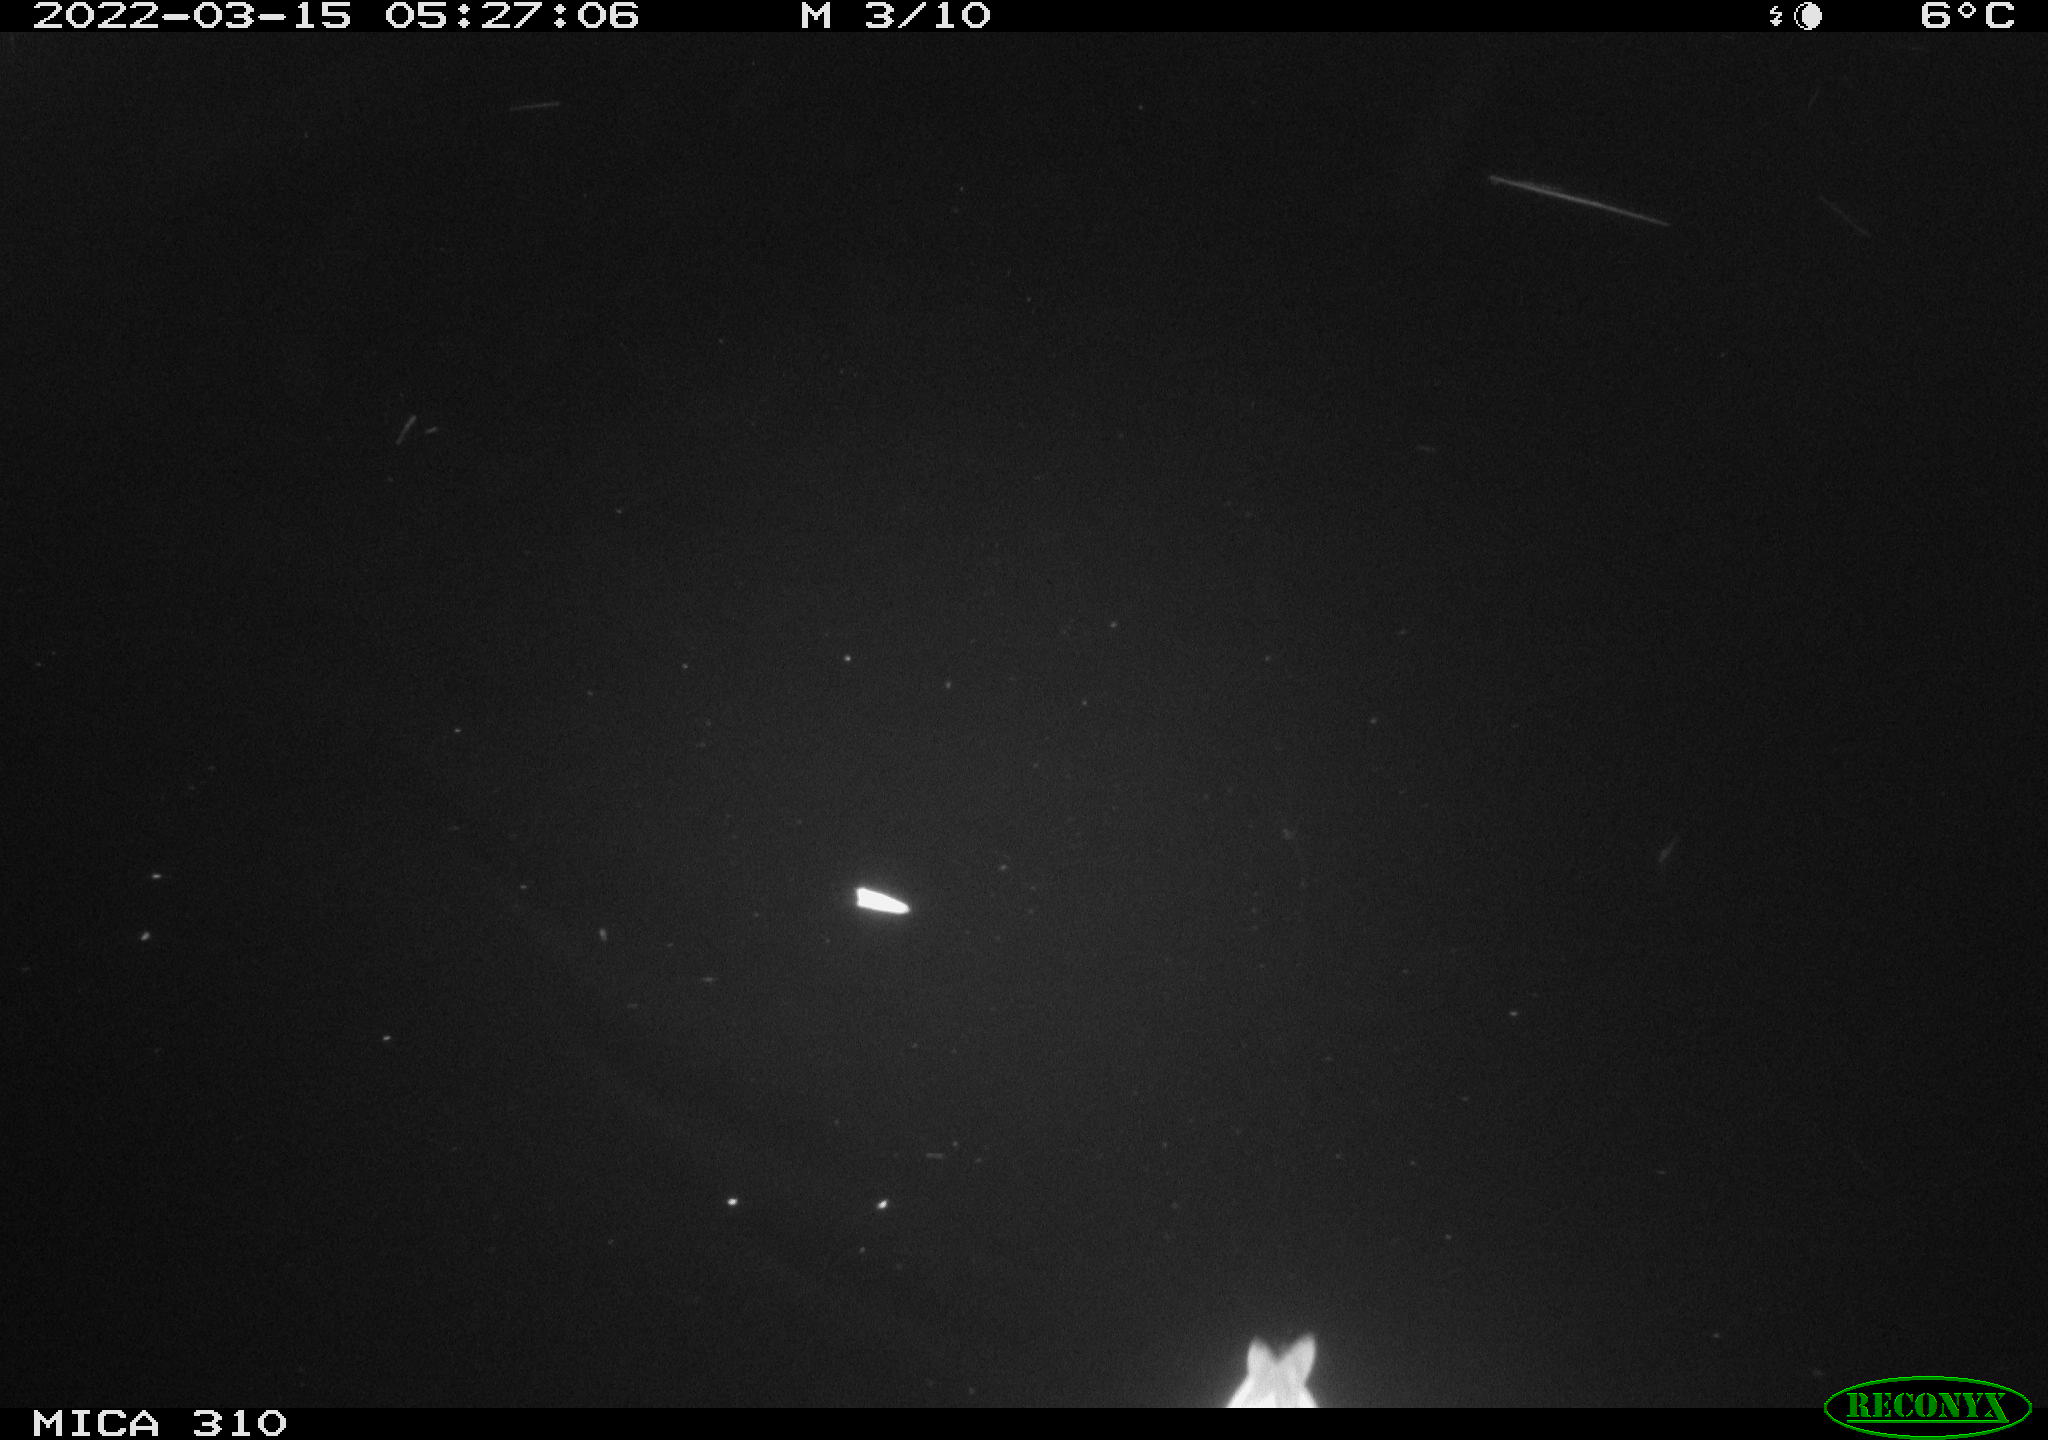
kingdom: Animalia
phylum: Chordata
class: Aves
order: Anseriformes
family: Anatidae
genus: Anas
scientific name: Anas platyrhynchos
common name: Mallard
